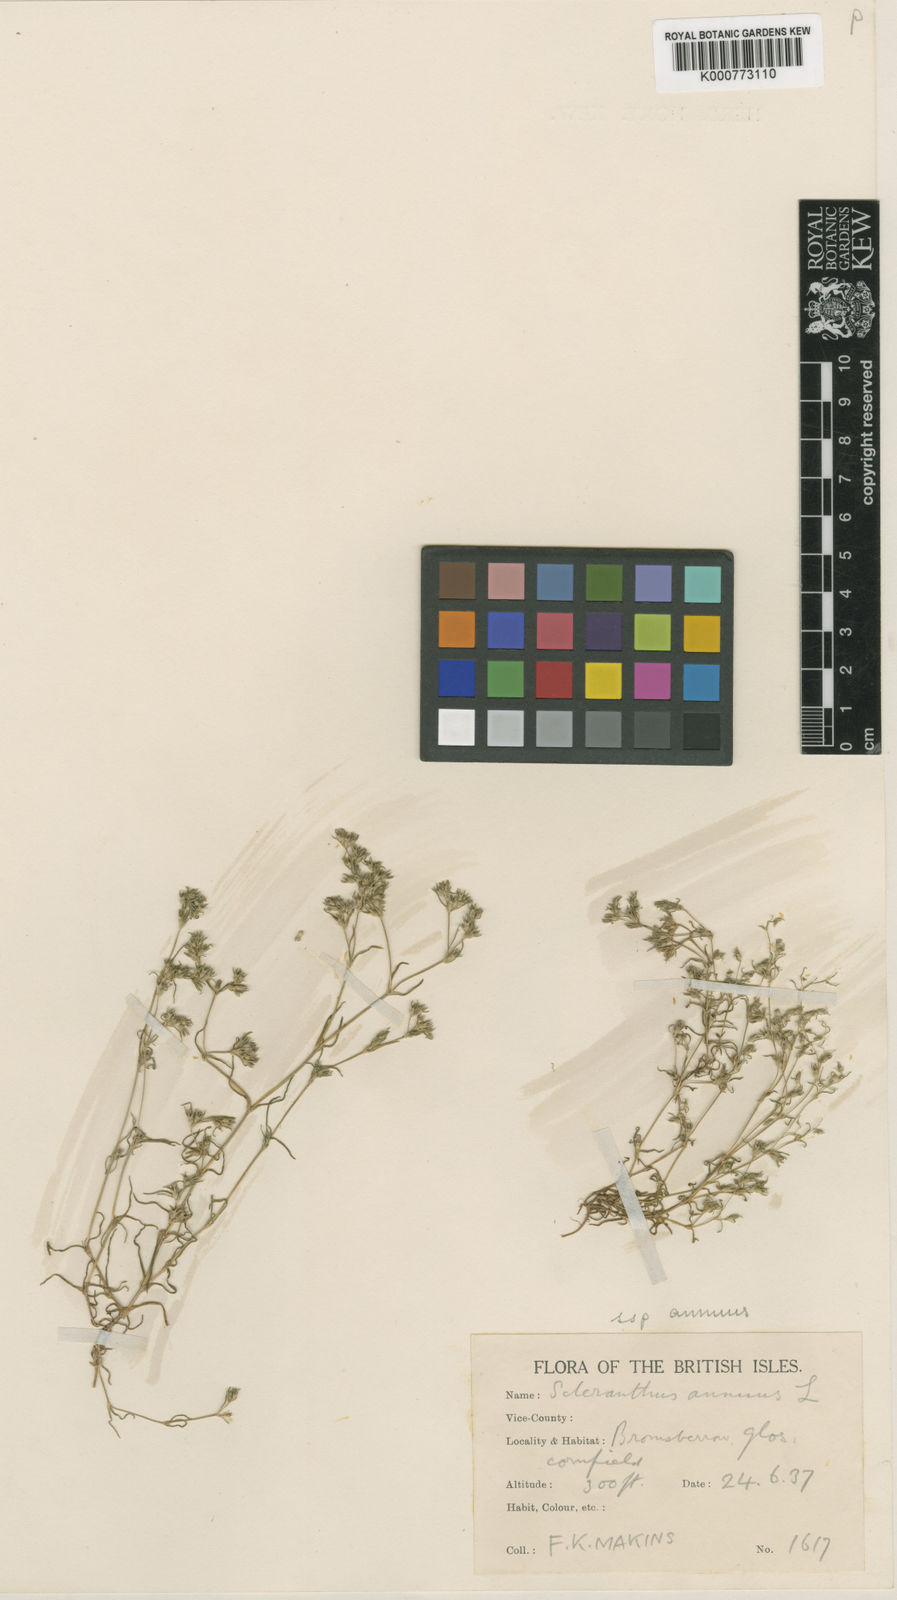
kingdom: Plantae
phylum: Tracheophyta
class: Magnoliopsida
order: Caryophyllales
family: Caryophyllaceae
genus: Scleranthus
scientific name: Scleranthus annuus
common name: Annual knawel
